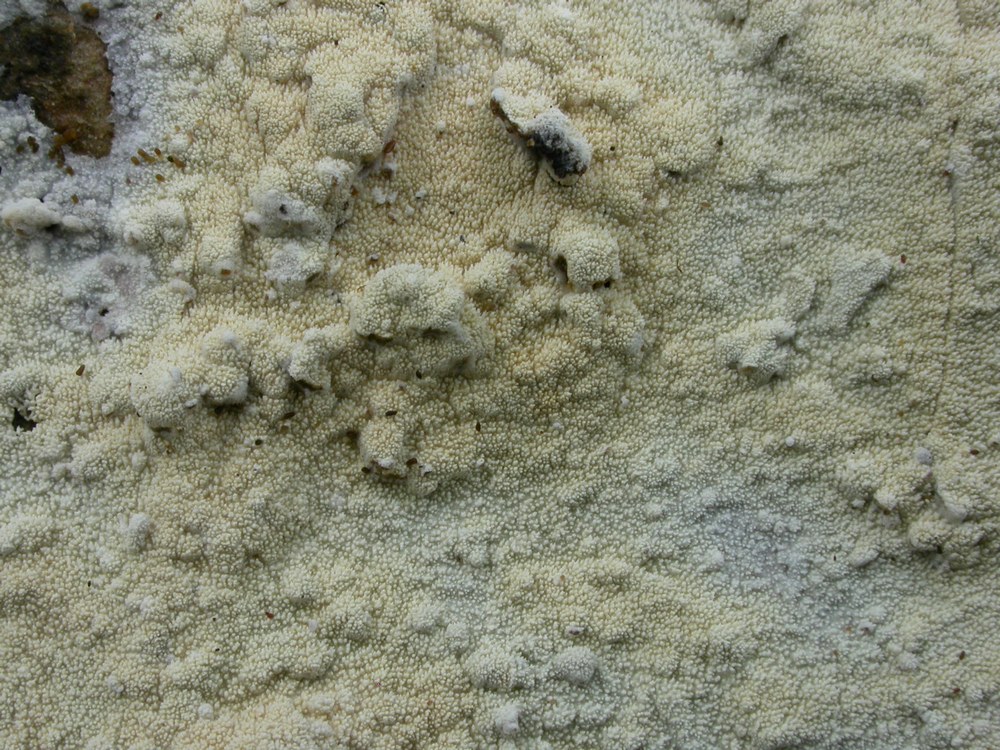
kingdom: Fungi
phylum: Basidiomycota
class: Agaricomycetes
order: Hymenochaetales
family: Schizoporaceae
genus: Xylodon
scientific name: Xylodon brevisetus
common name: tætvortet tandsvamp
